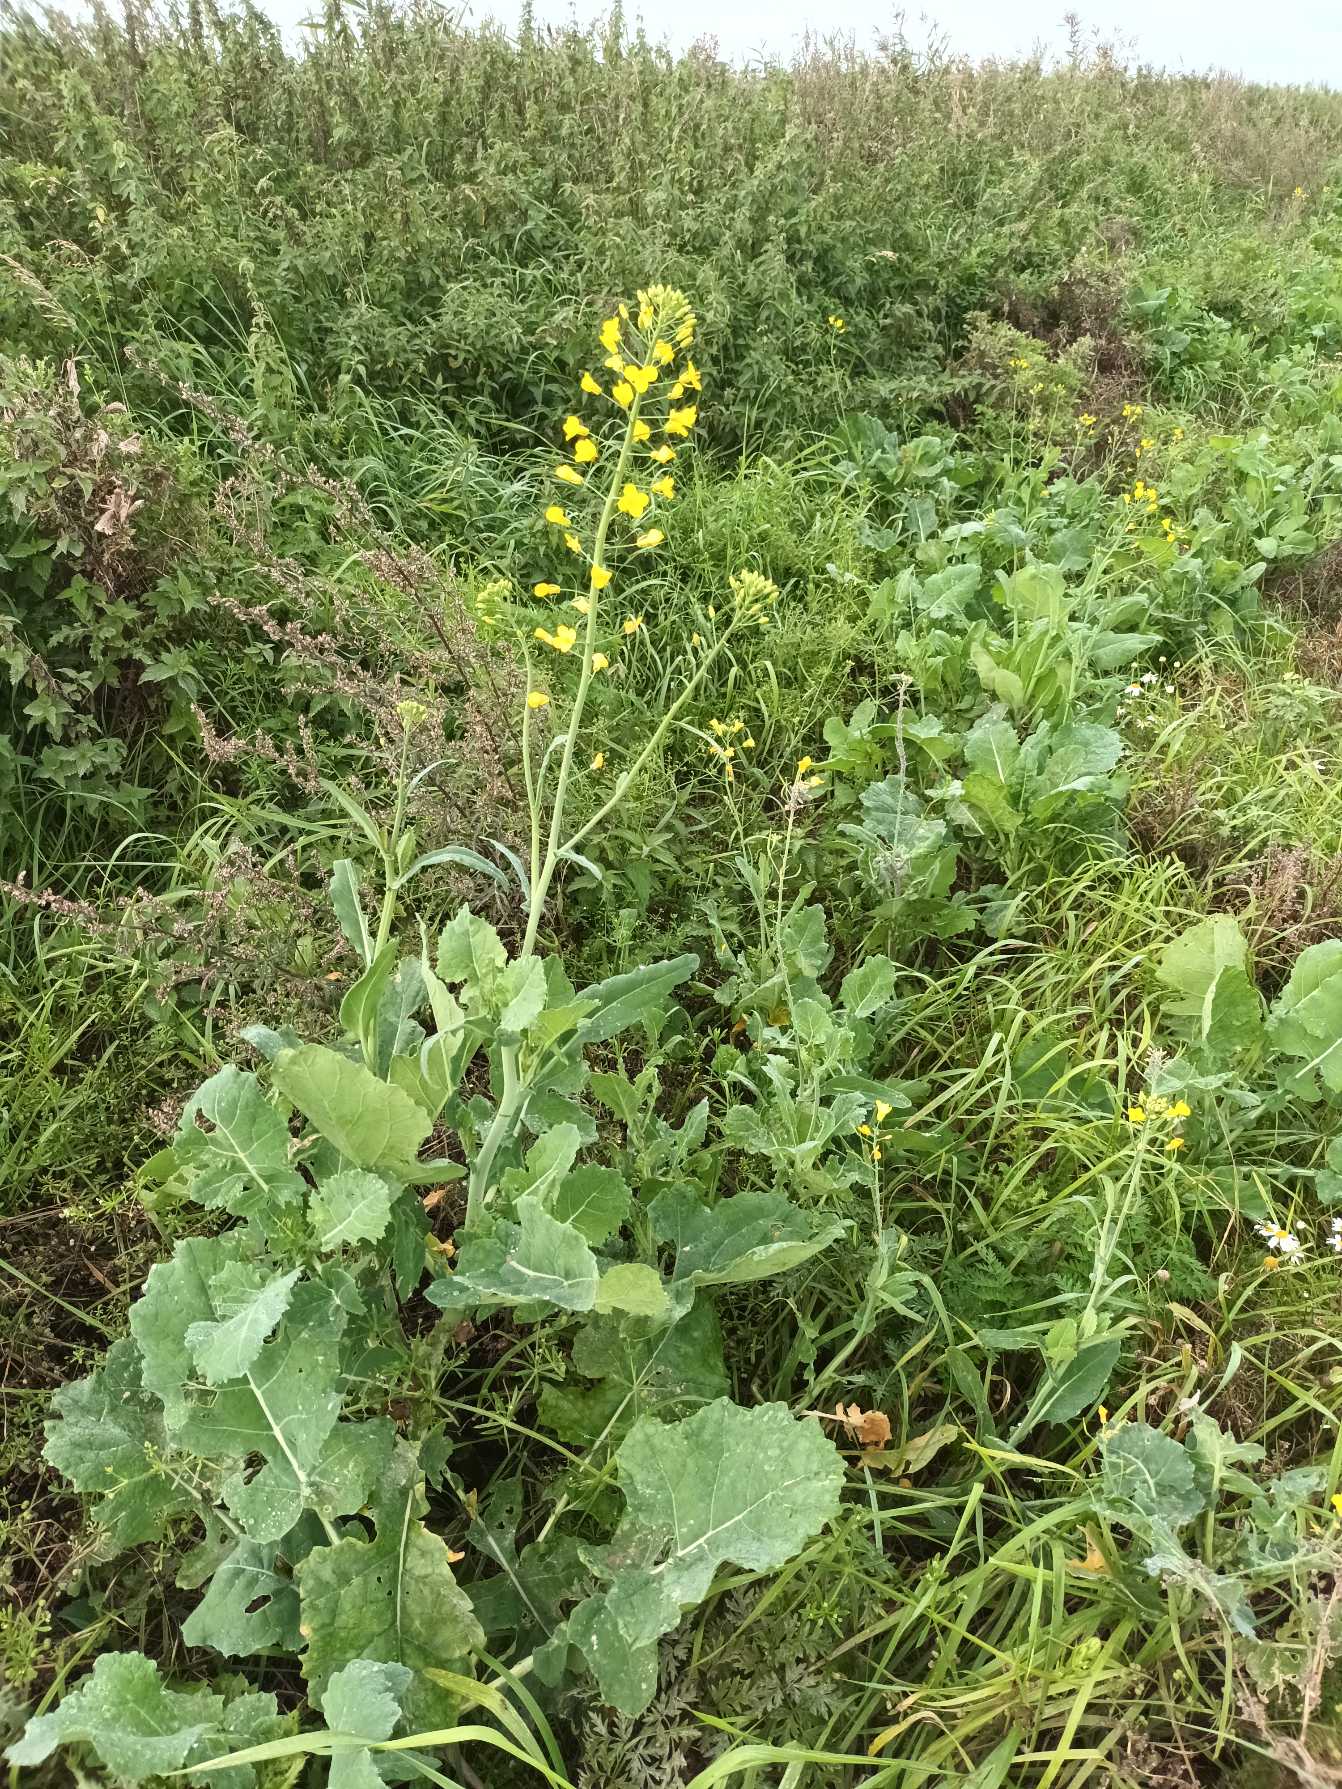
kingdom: Plantae
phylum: Tracheophyta
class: Magnoliopsida
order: Brassicales
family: Brassicaceae
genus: Brassica
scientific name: Brassica napus
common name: Raps
